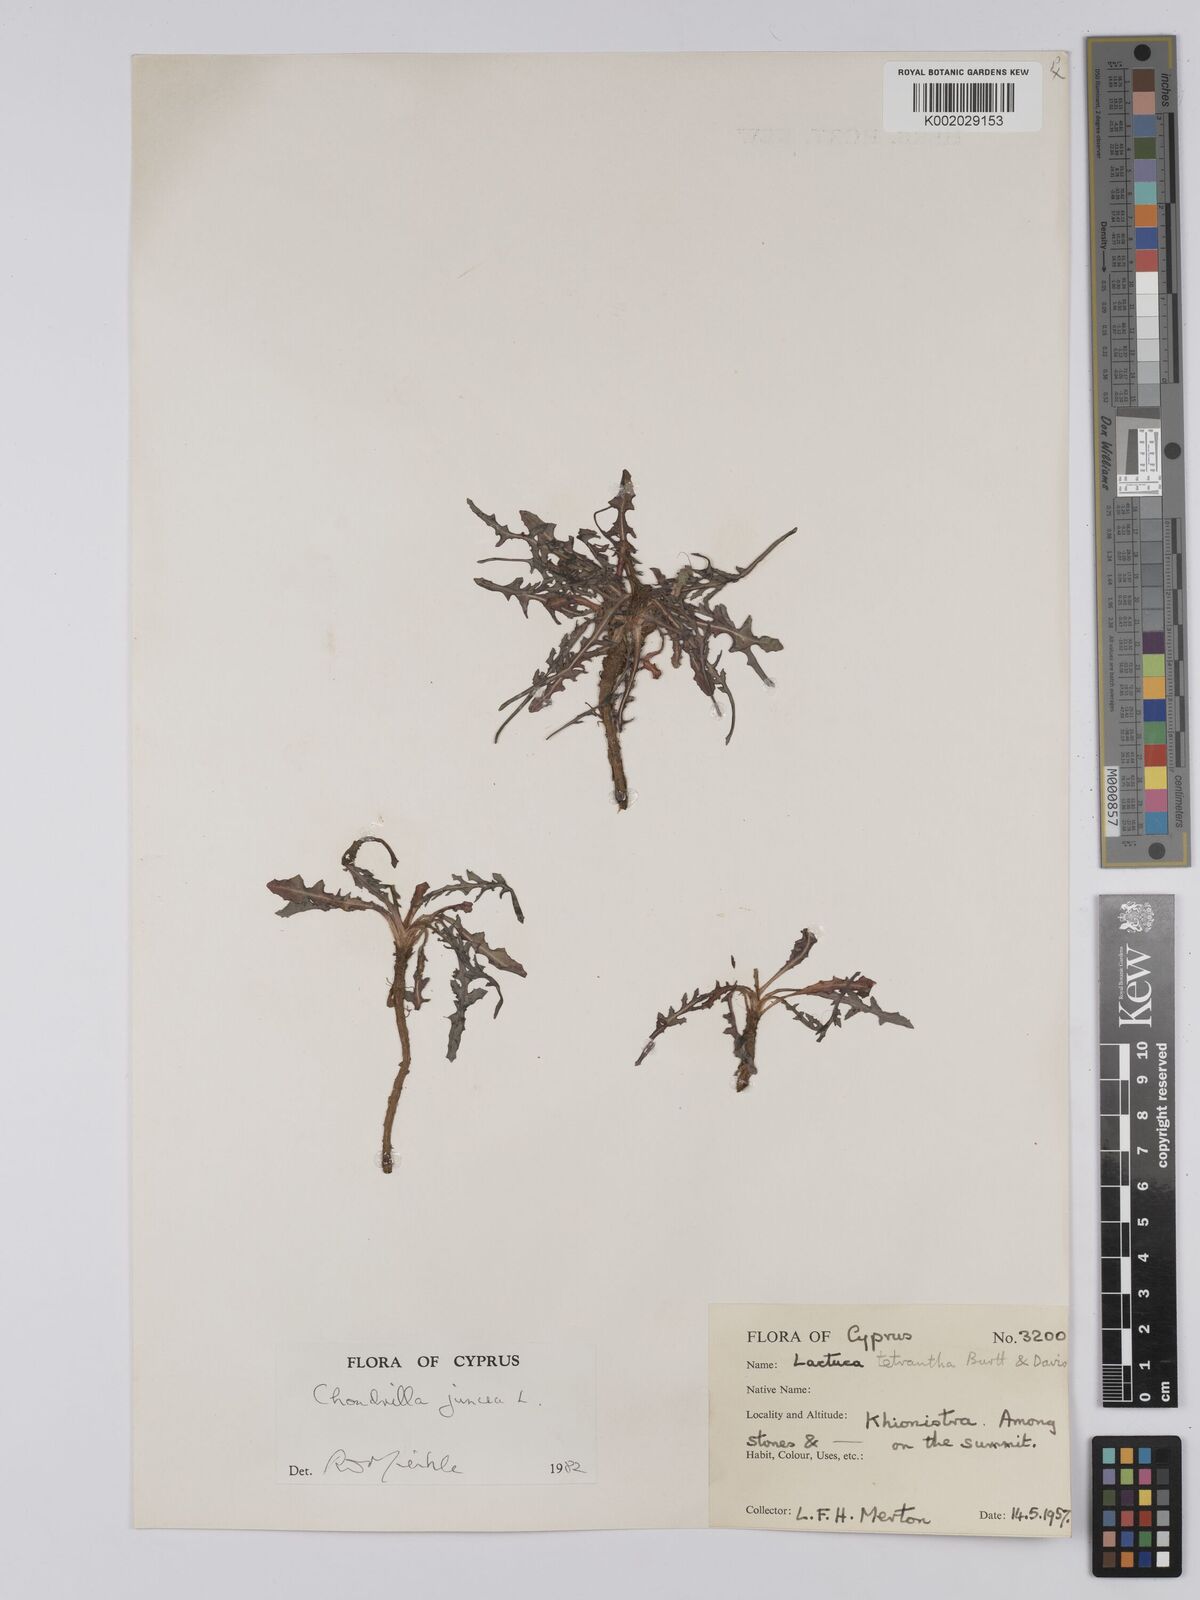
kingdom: Plantae
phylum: Tracheophyta
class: Magnoliopsida
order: Asterales
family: Asteraceae
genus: Chondrilla
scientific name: Chondrilla juncea
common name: Skeleton weed
